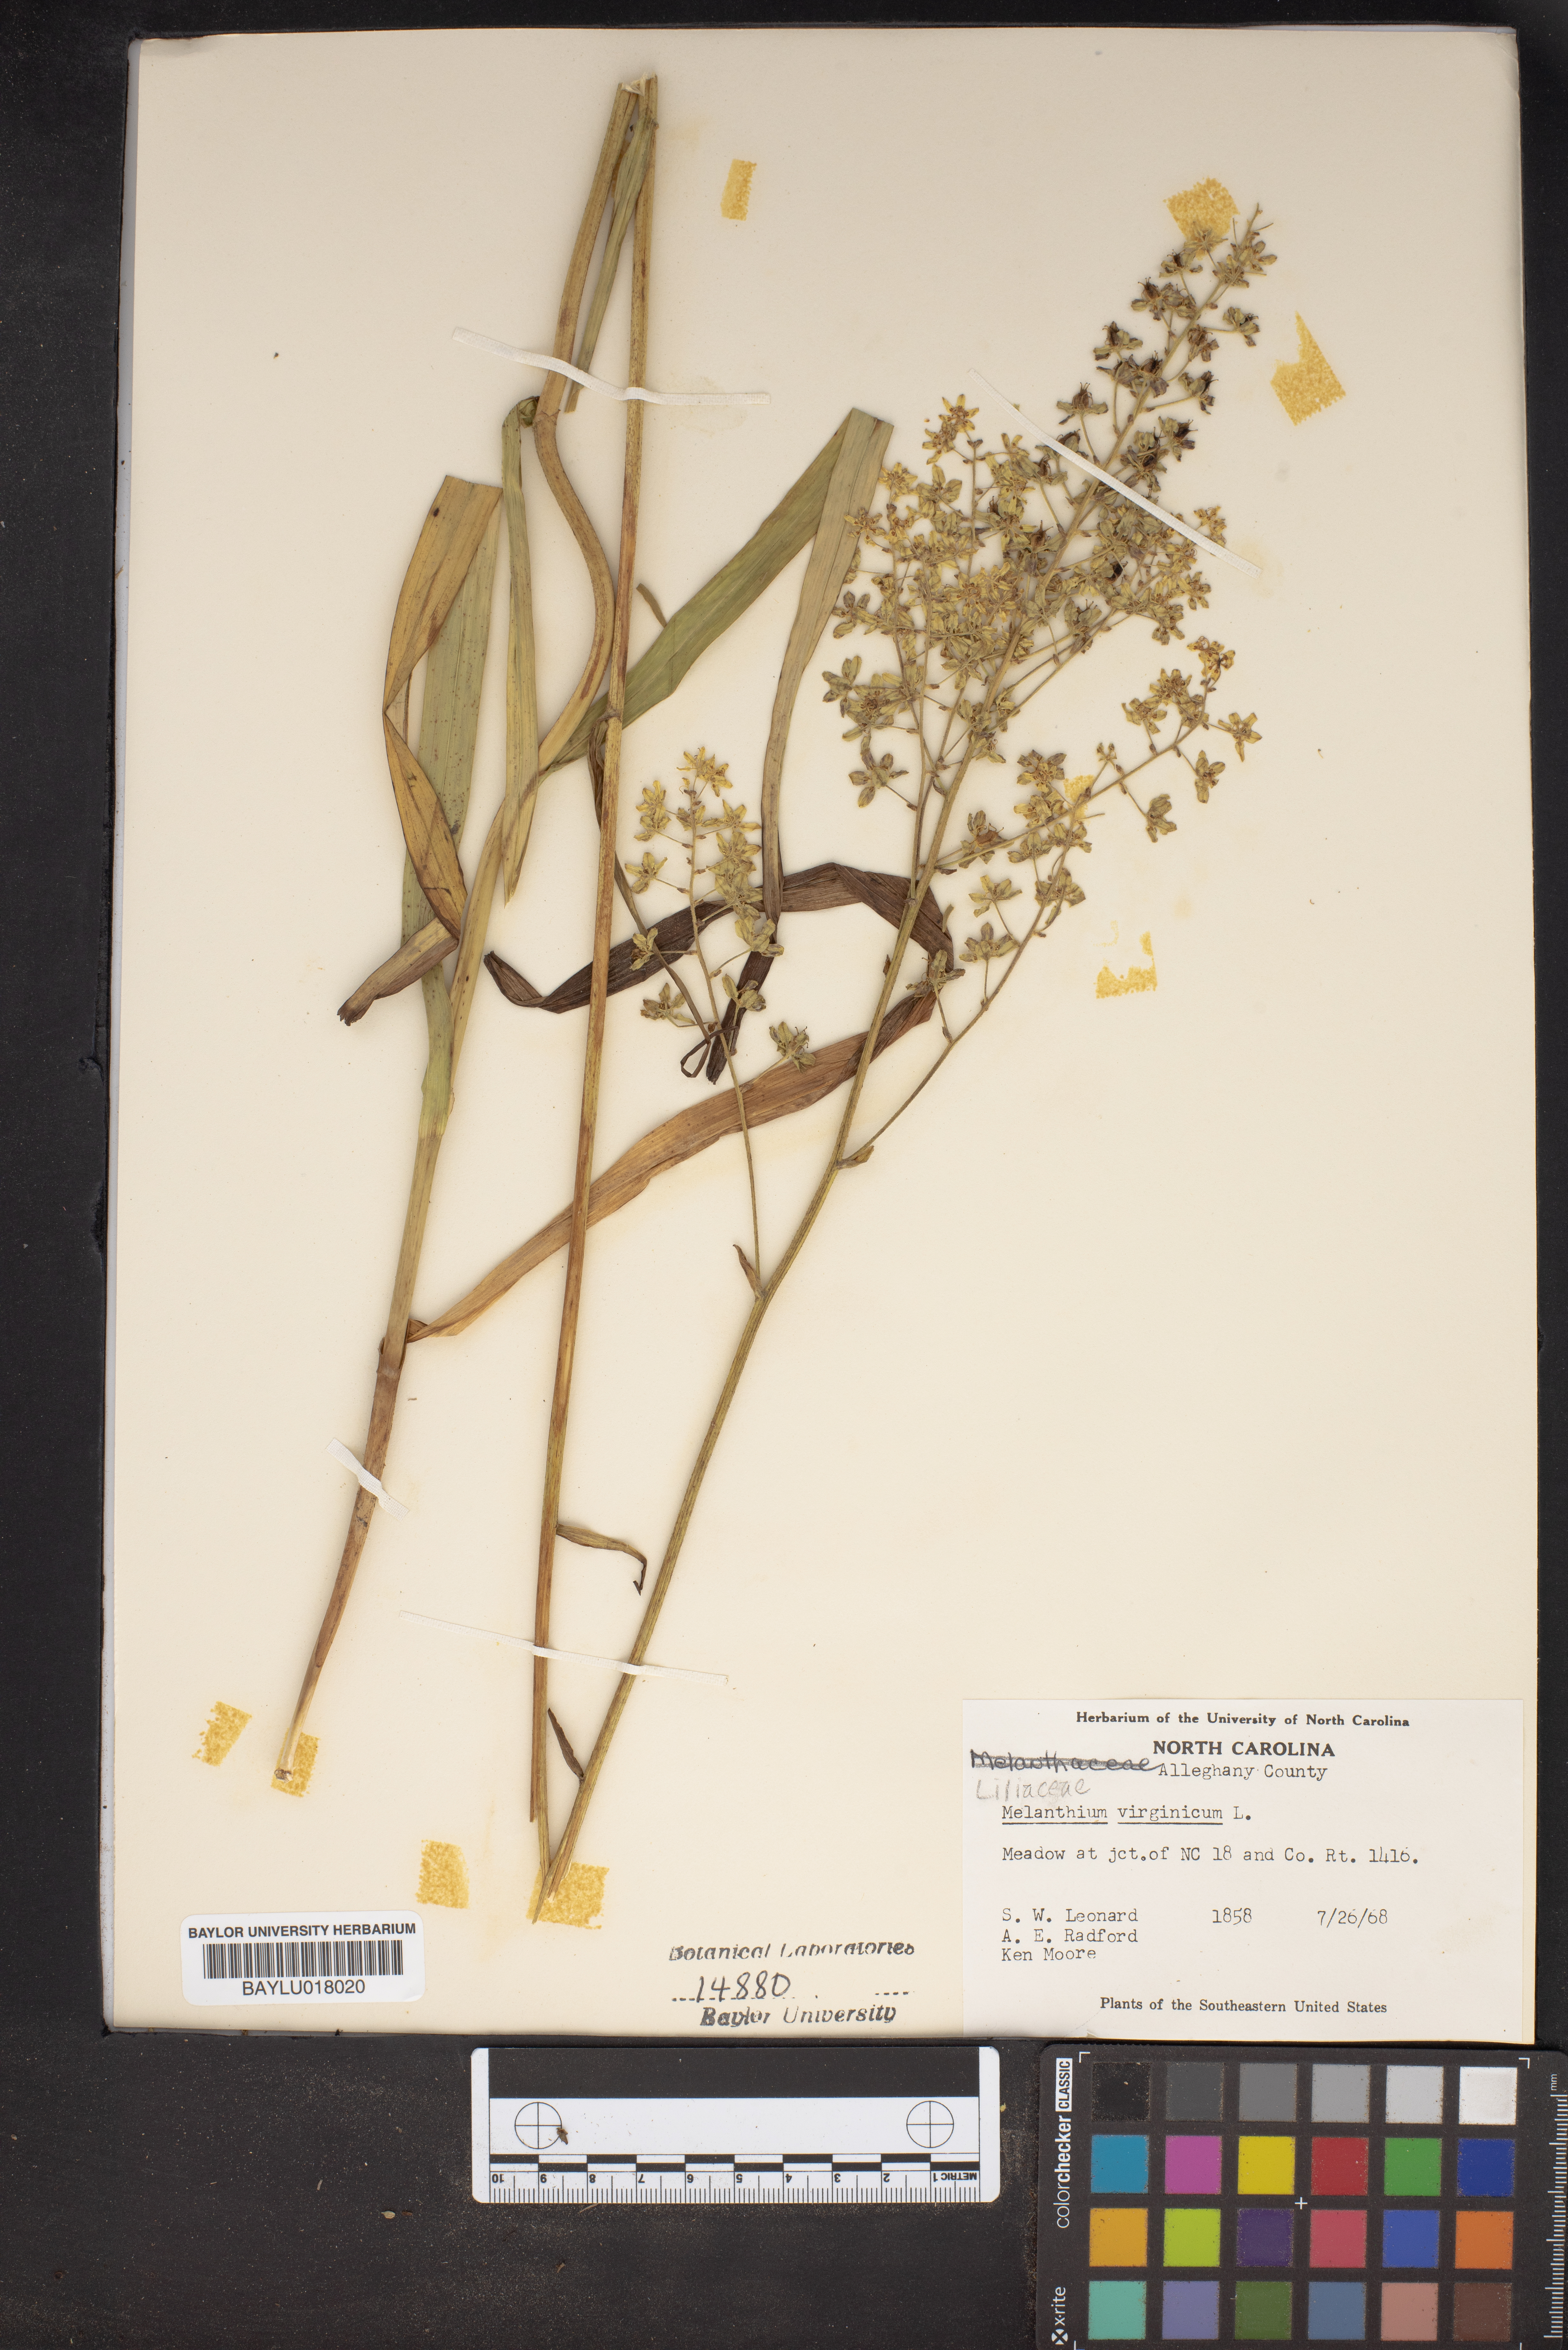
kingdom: Plantae
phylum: Tracheophyta
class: Liliopsida
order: Liliales
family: Melanthiaceae
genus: Melanthium
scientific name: Melanthium virginicum
